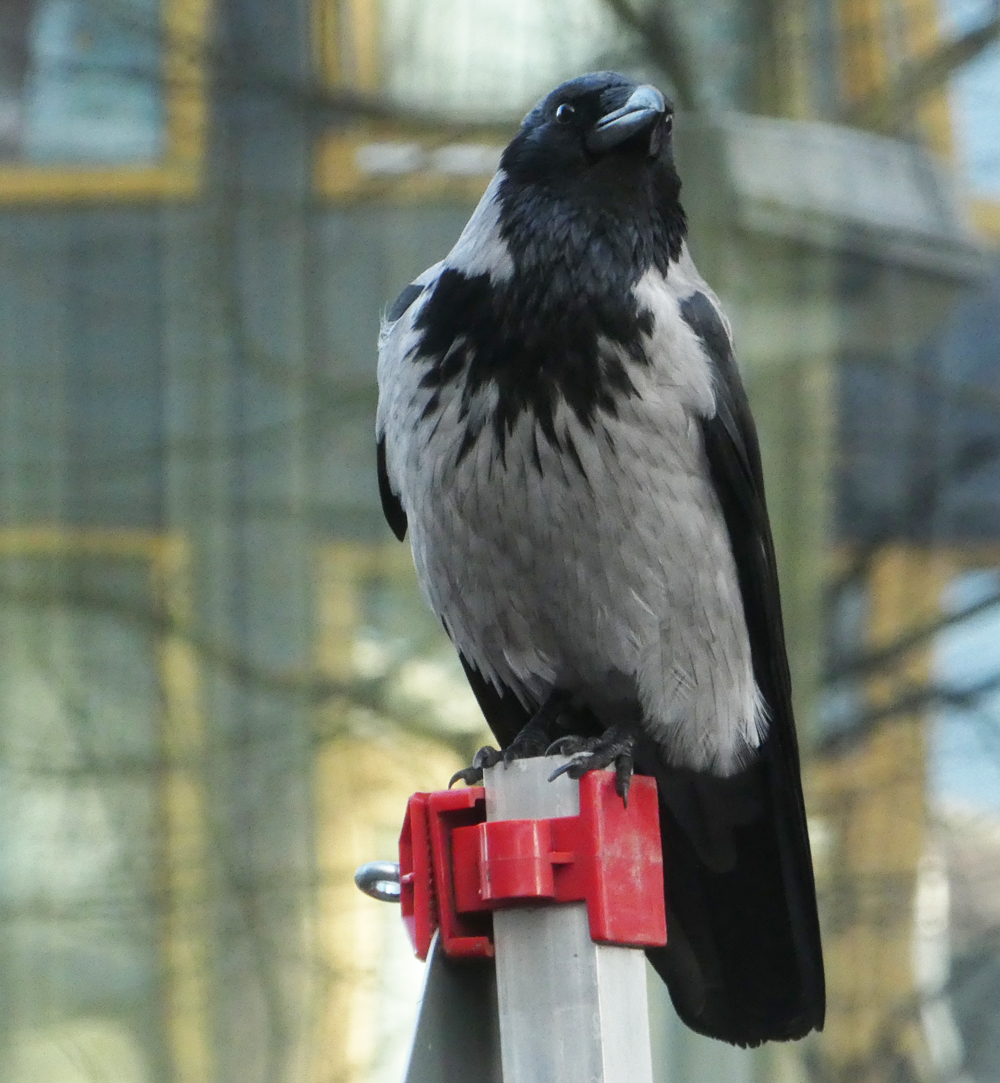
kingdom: Animalia
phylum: Chordata
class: Aves
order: Passeriformes
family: Corvidae
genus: Corvus
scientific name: Corvus cornix
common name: Hooded crow
